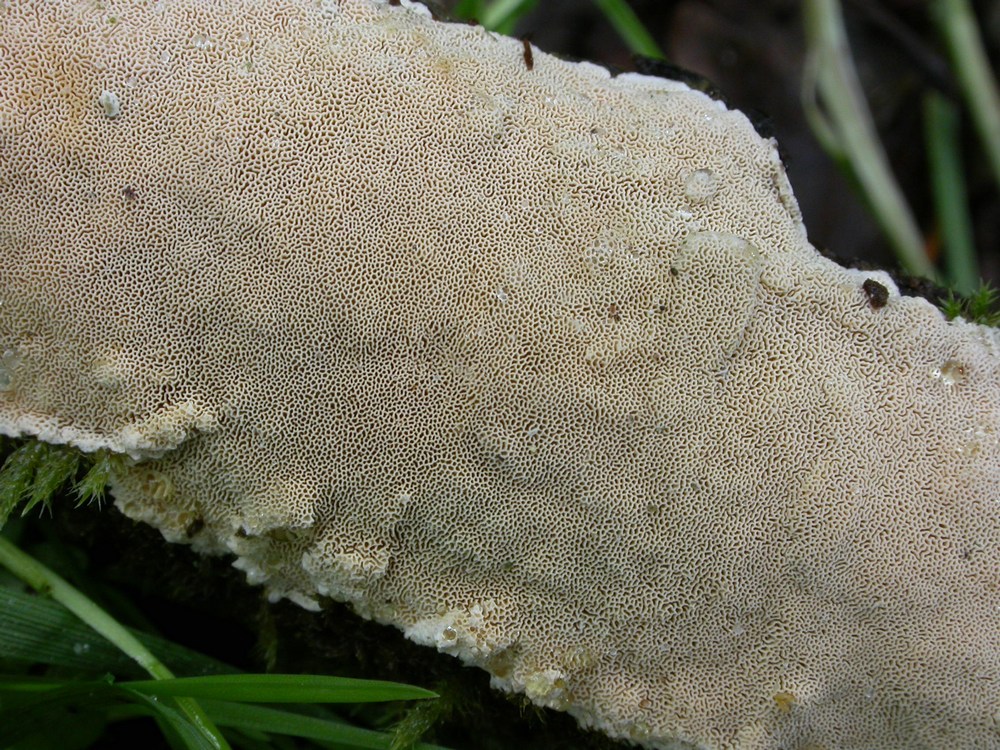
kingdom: Fungi
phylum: Basidiomycota
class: Agaricomycetes
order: Polyporales
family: Steccherinaceae
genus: Junghuhnia
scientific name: Junghuhnia nitida
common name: almindelig skønporesvamp
